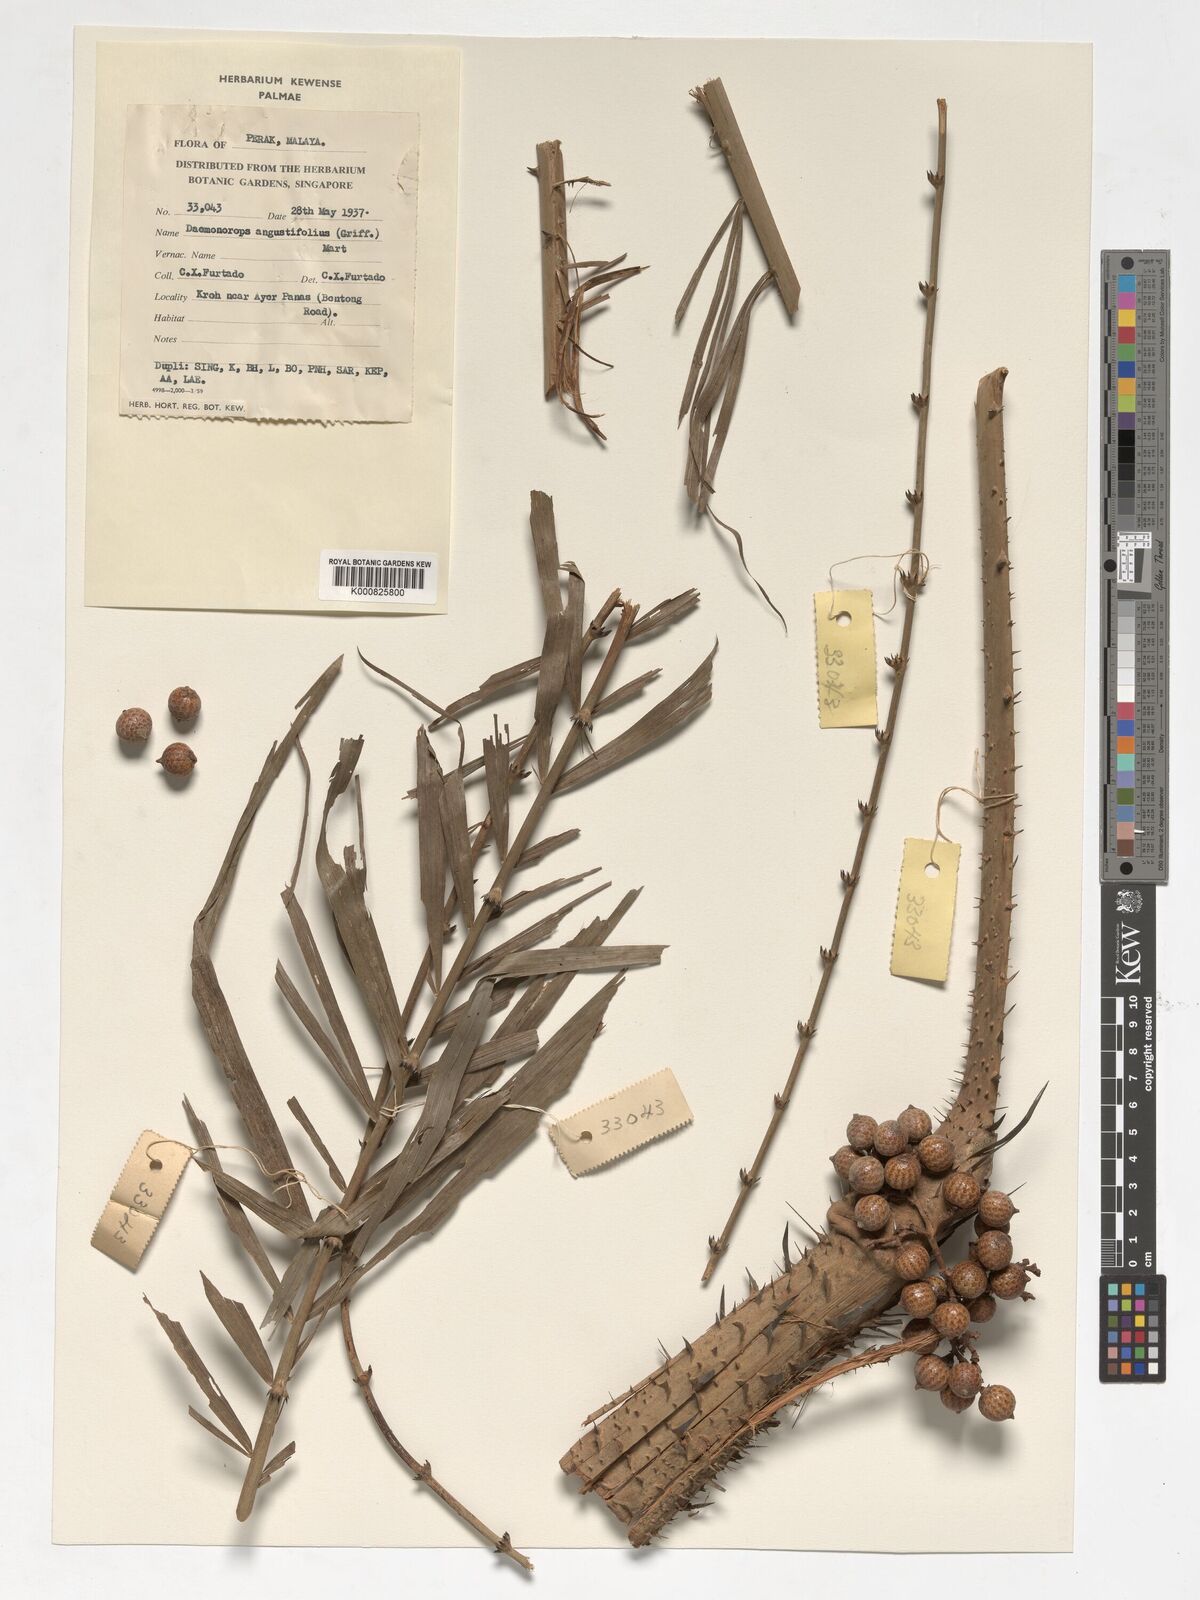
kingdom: Plantae
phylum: Tracheophyta
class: Liliopsida
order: Arecales
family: Arecaceae
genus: Calamus
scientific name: Calamus melanochaetes
